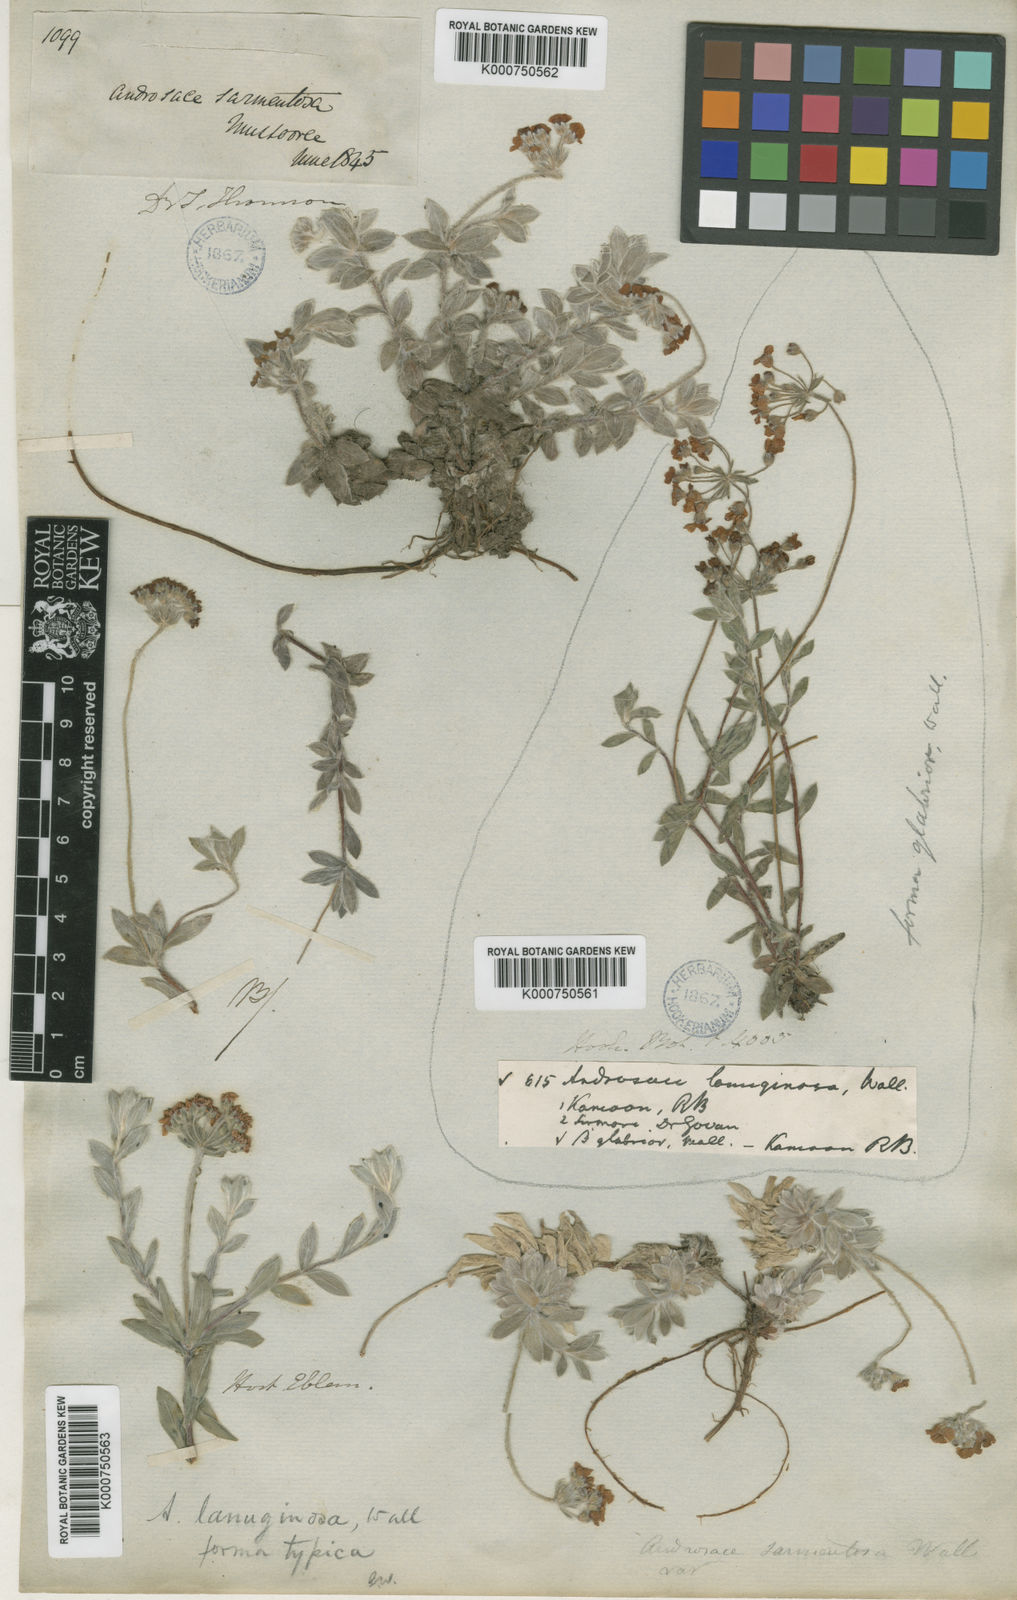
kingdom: Plantae
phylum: Tracheophyta
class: Magnoliopsida
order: Ericales
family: Primulaceae
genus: Androsace
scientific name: Androsace lanuginosa
